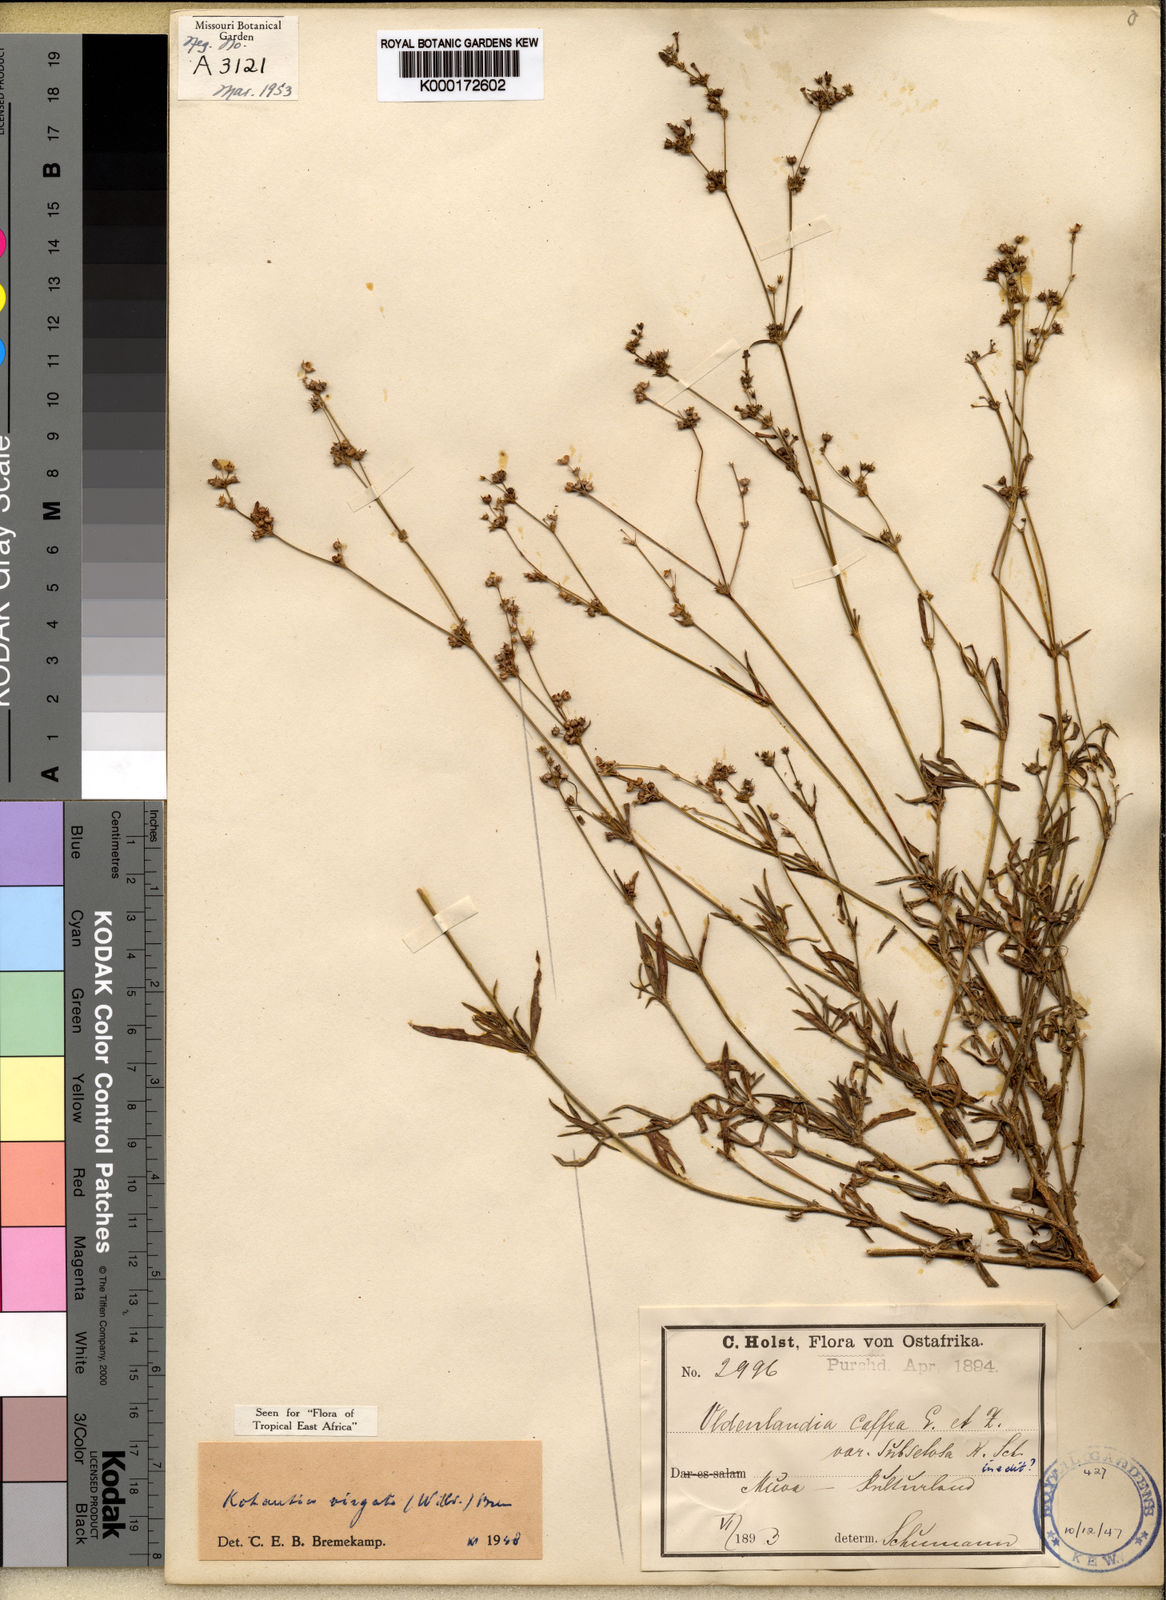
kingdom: Plantae
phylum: Tracheophyta
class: Magnoliopsida
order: Gentianales
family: Rubiaceae
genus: Cordylostigma
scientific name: Cordylostigma virgatum
